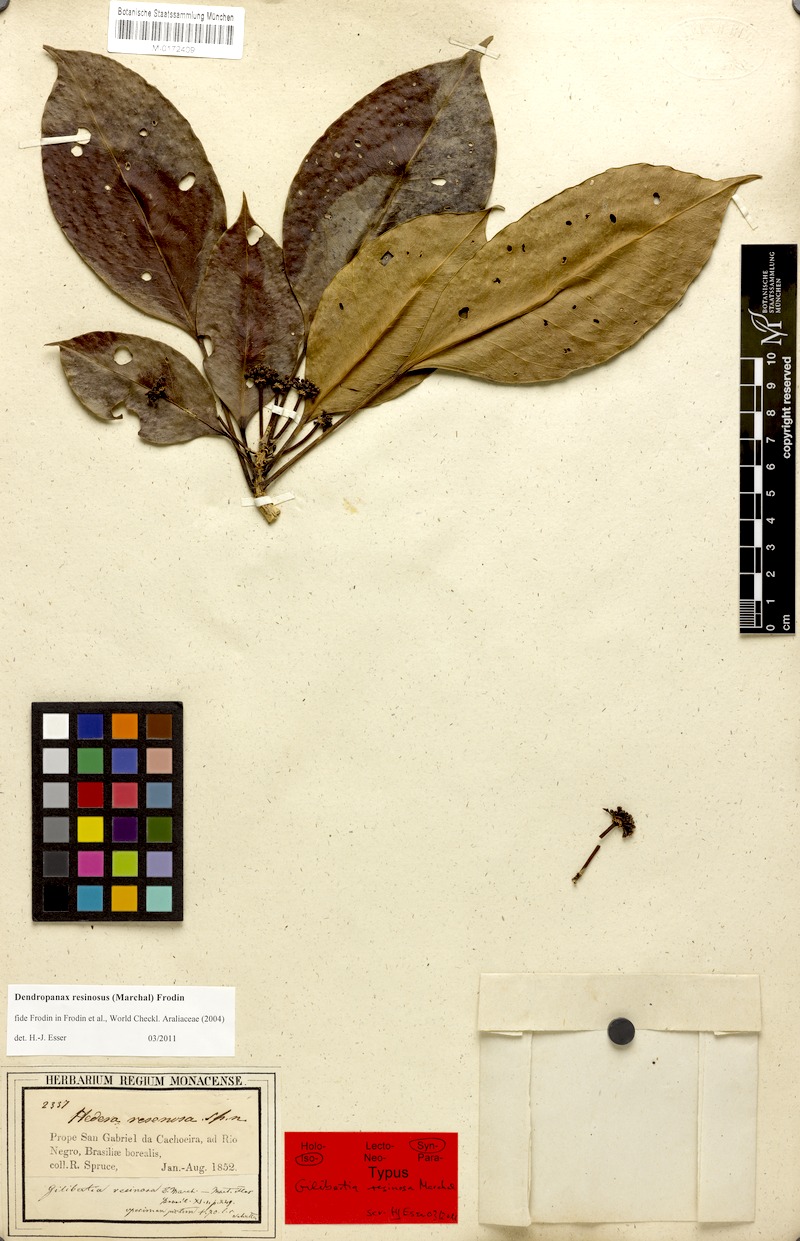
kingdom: Plantae
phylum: Tracheophyta
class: Magnoliopsida
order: Apiales
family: Araliaceae
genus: Dendropanax
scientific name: Dendropanax resinosus
